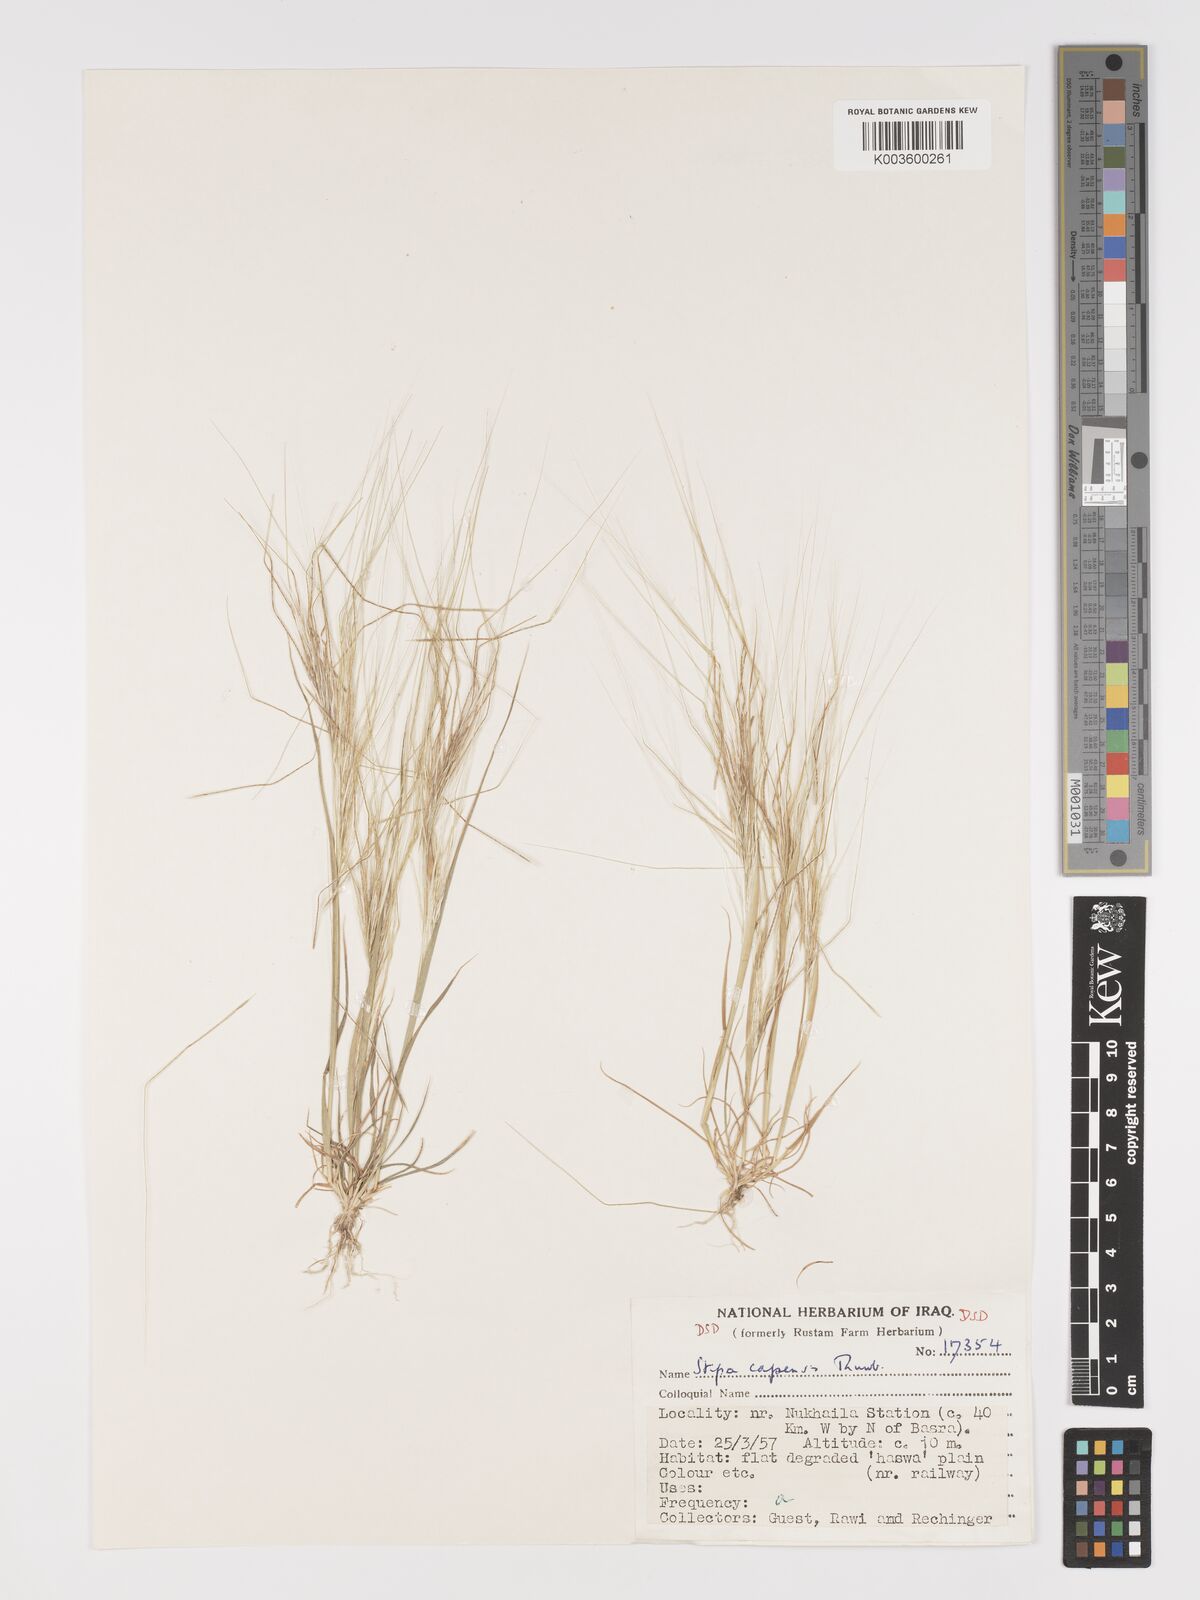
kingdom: Plantae
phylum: Tracheophyta
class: Liliopsida
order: Poales
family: Poaceae
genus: Stipellula
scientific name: Stipellula capensis
